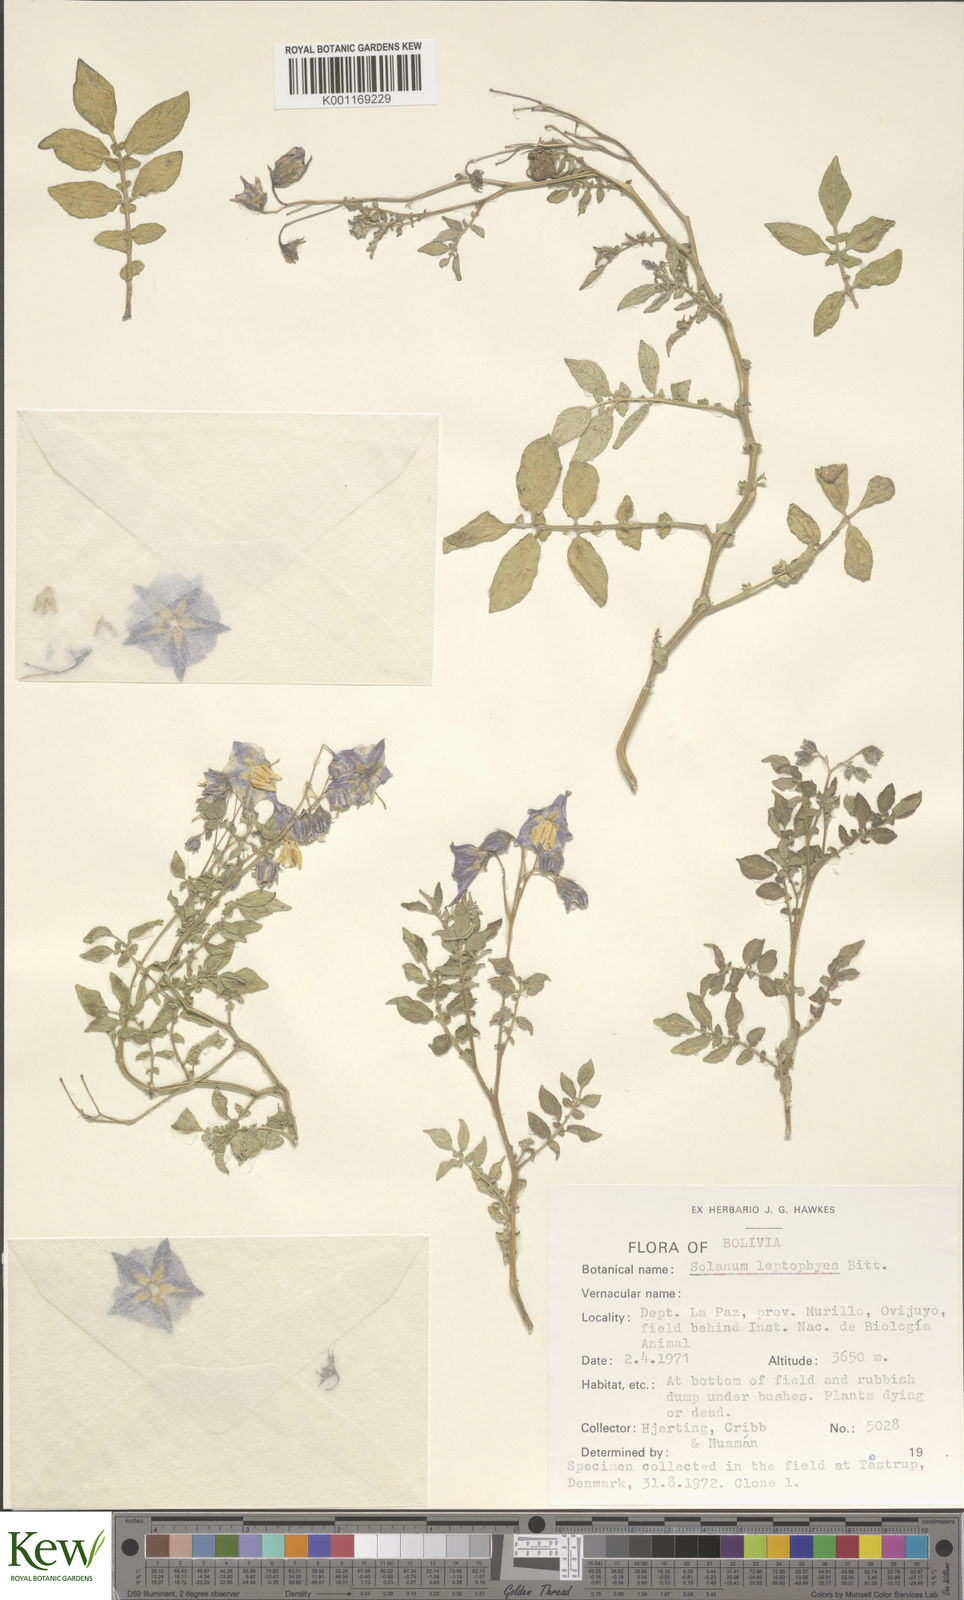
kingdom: Plantae
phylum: Tracheophyta
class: Magnoliopsida
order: Solanales
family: Solanaceae
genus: Solanum
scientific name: Solanum tuberosum
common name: Potato
